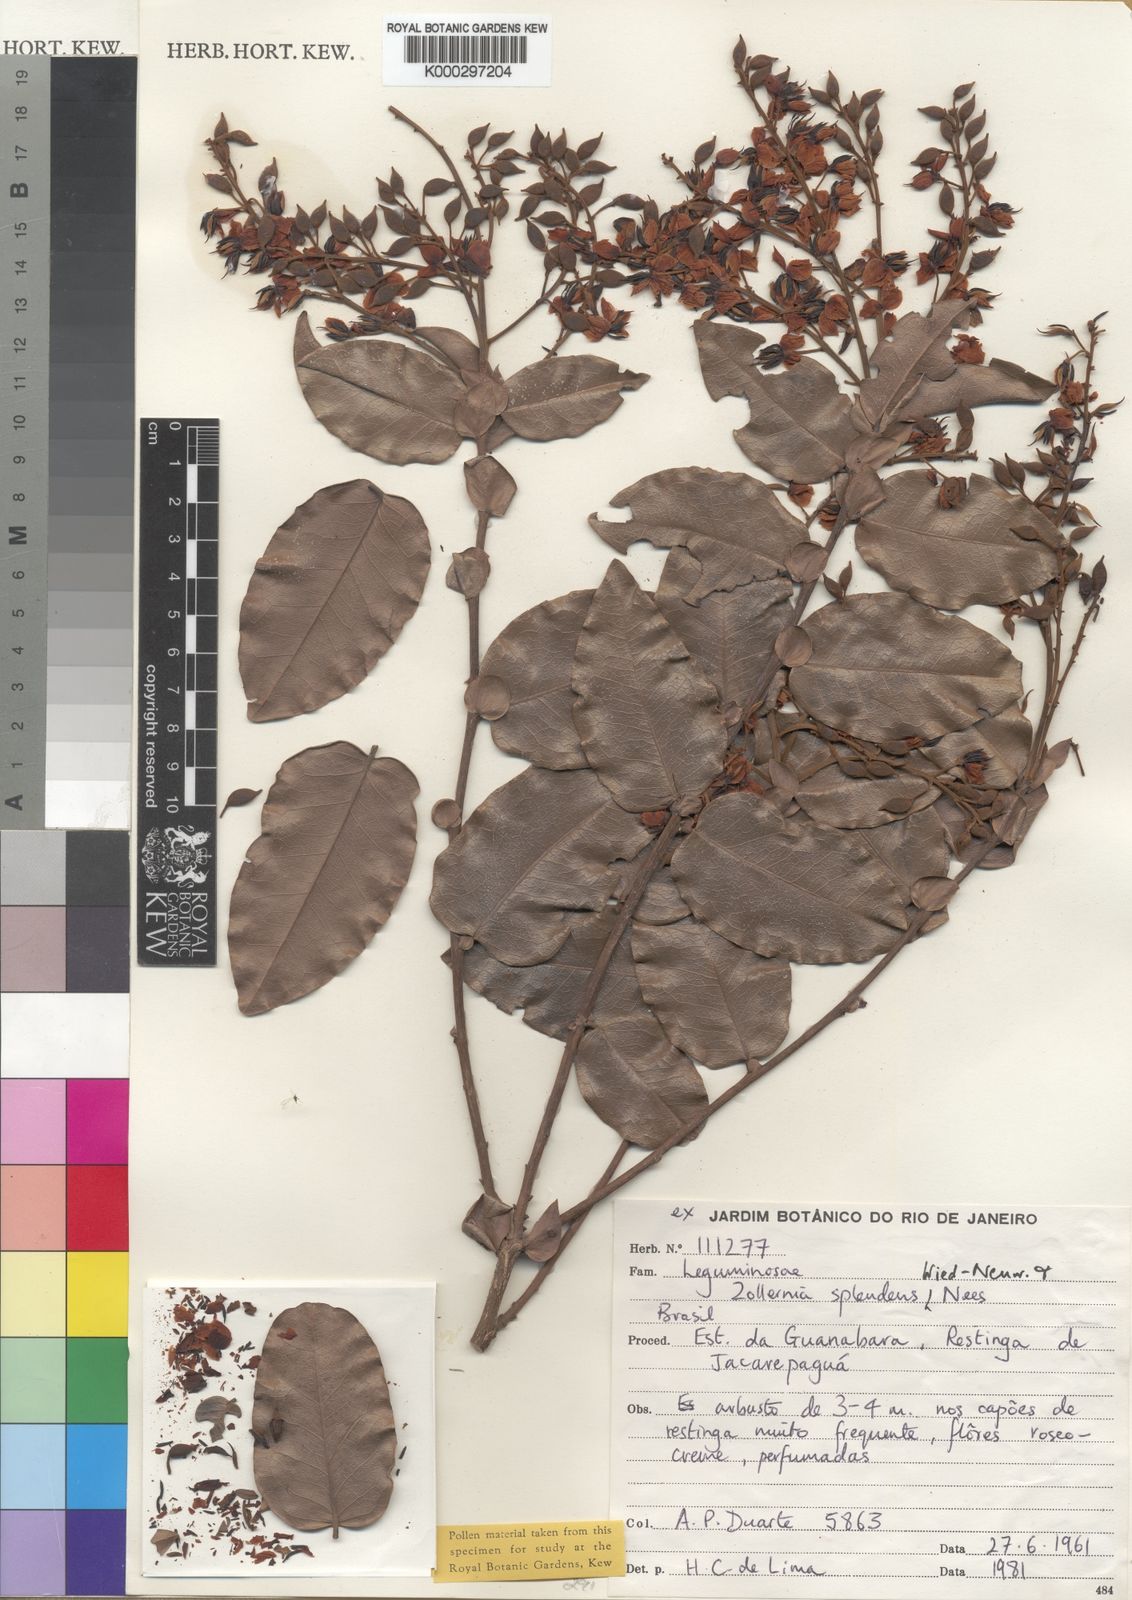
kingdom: Plantae
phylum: Tracheophyta
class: Magnoliopsida
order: Fabales
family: Fabaceae
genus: Zollernia
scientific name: Zollernia
